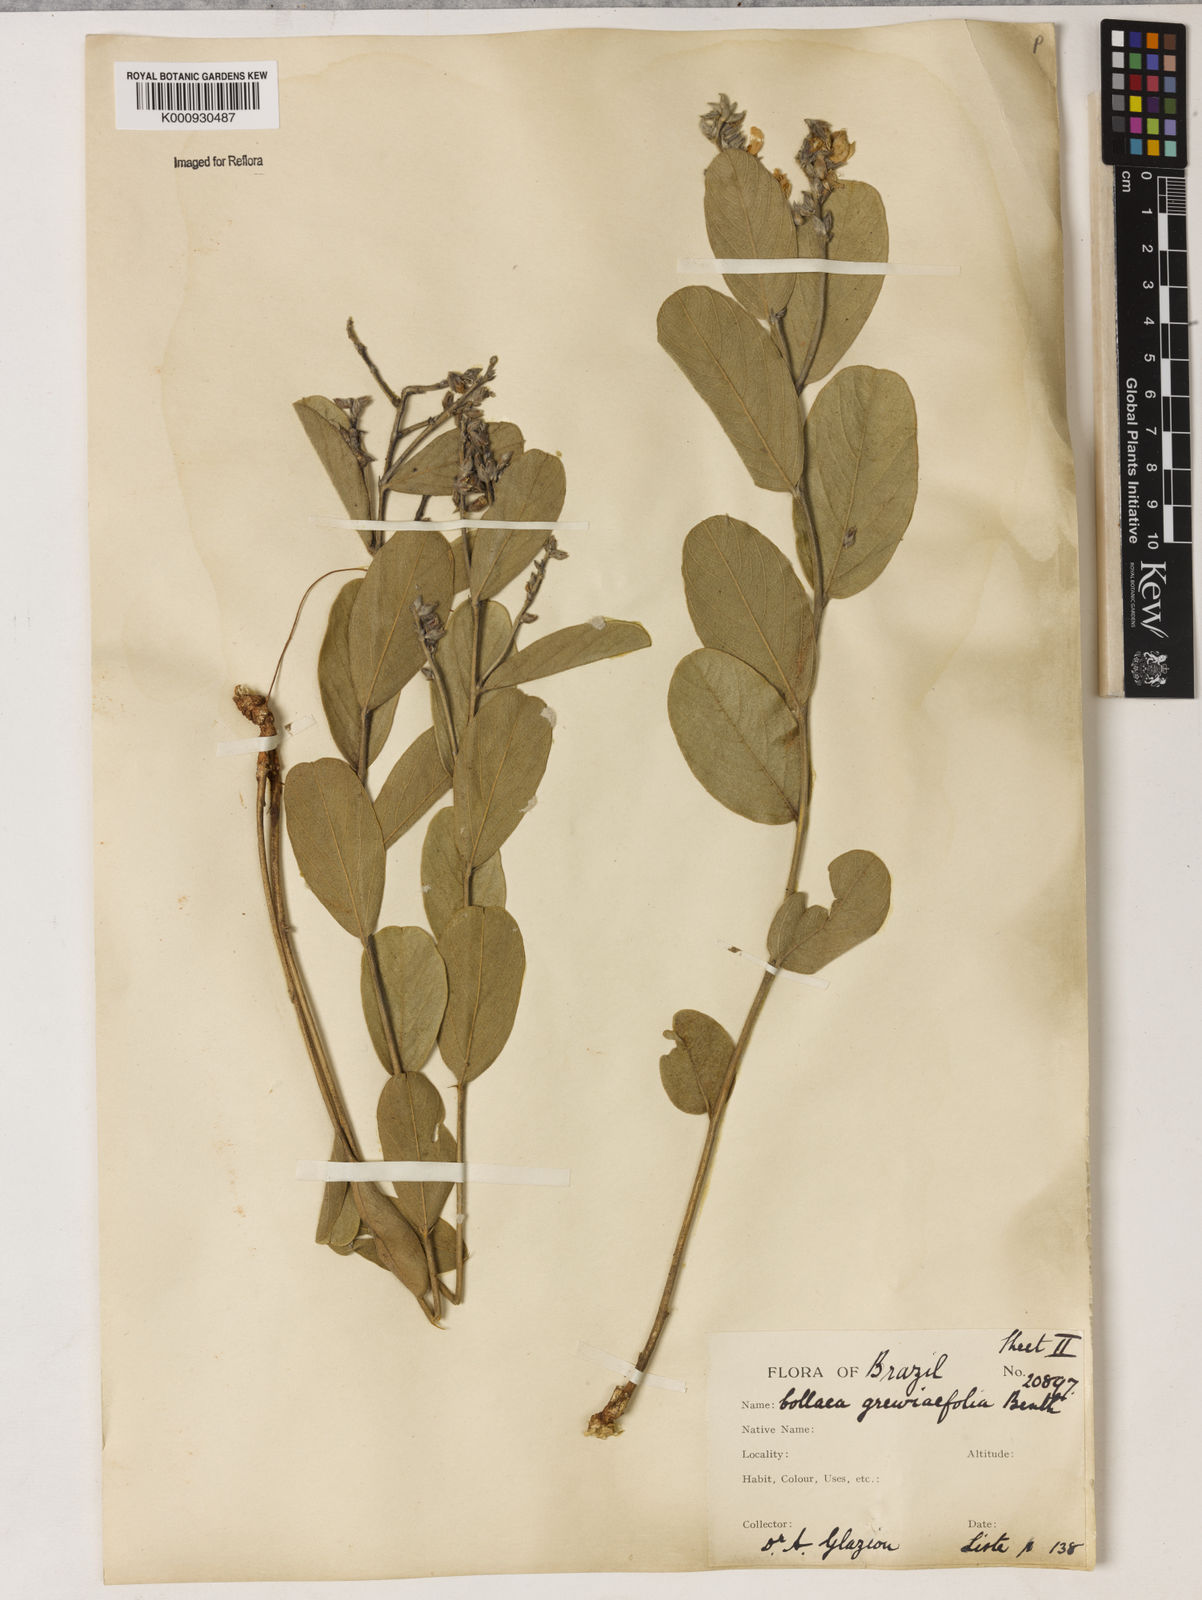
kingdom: Plantae
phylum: Tracheophyta
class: Magnoliopsida
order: Fabales
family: Fabaceae
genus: Galactia
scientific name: Galactia
